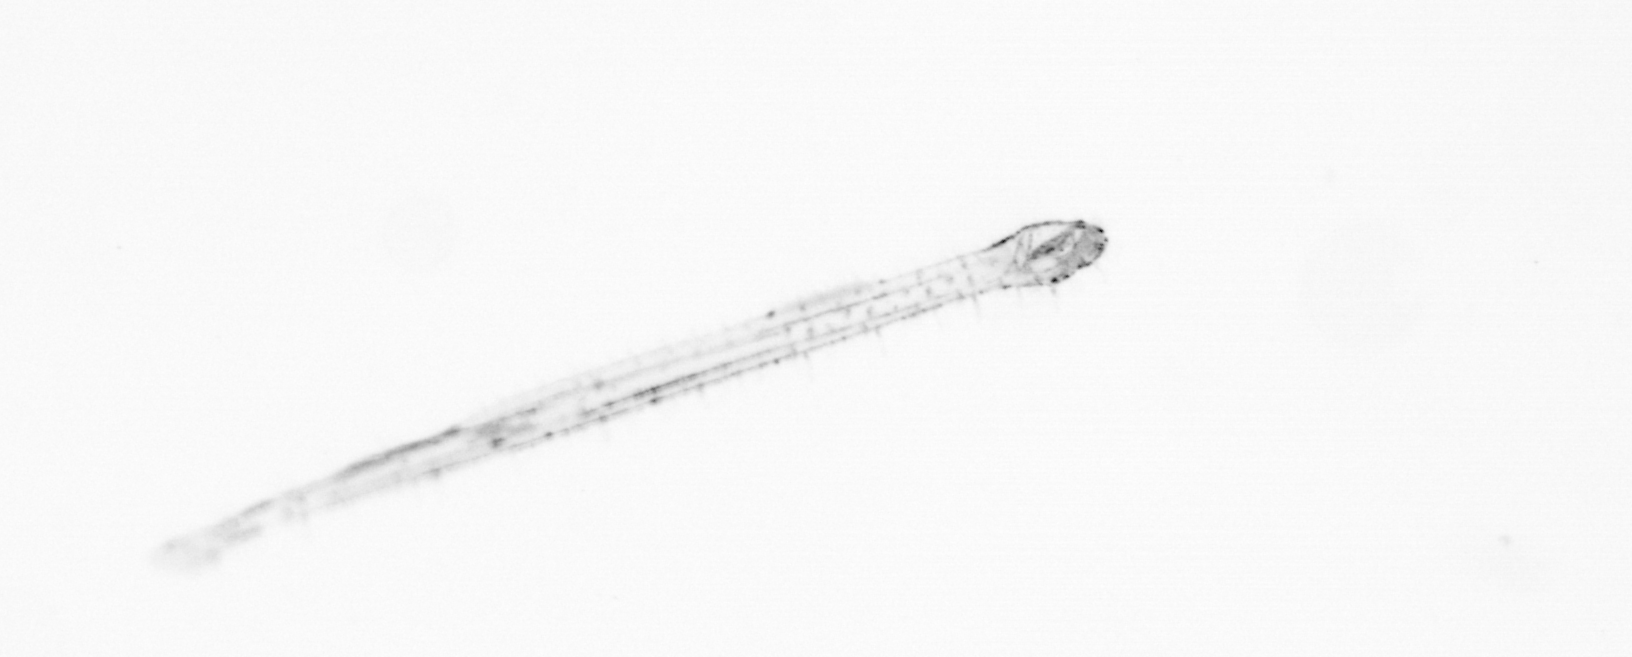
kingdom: Animalia
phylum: Chaetognatha
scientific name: Chaetognatha
